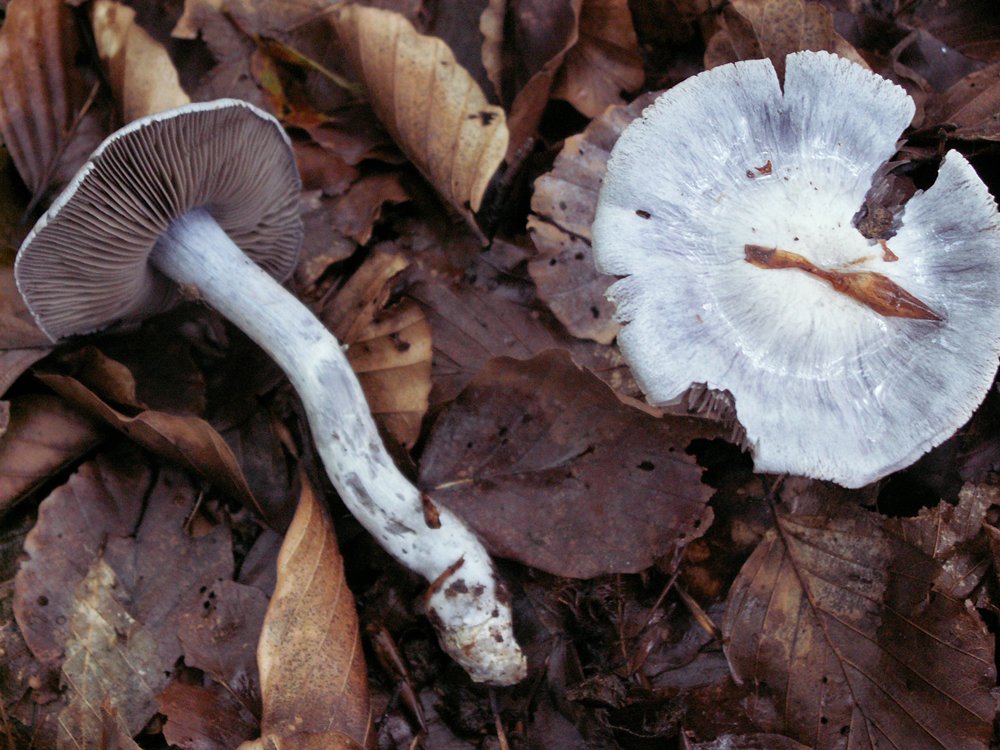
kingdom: Fungi
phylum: Basidiomycota
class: Agaricomycetes
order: Agaricales
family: Cortinariaceae
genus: Cortinarius
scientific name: Cortinarius alboviolaceus
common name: lysviolet slørhat
